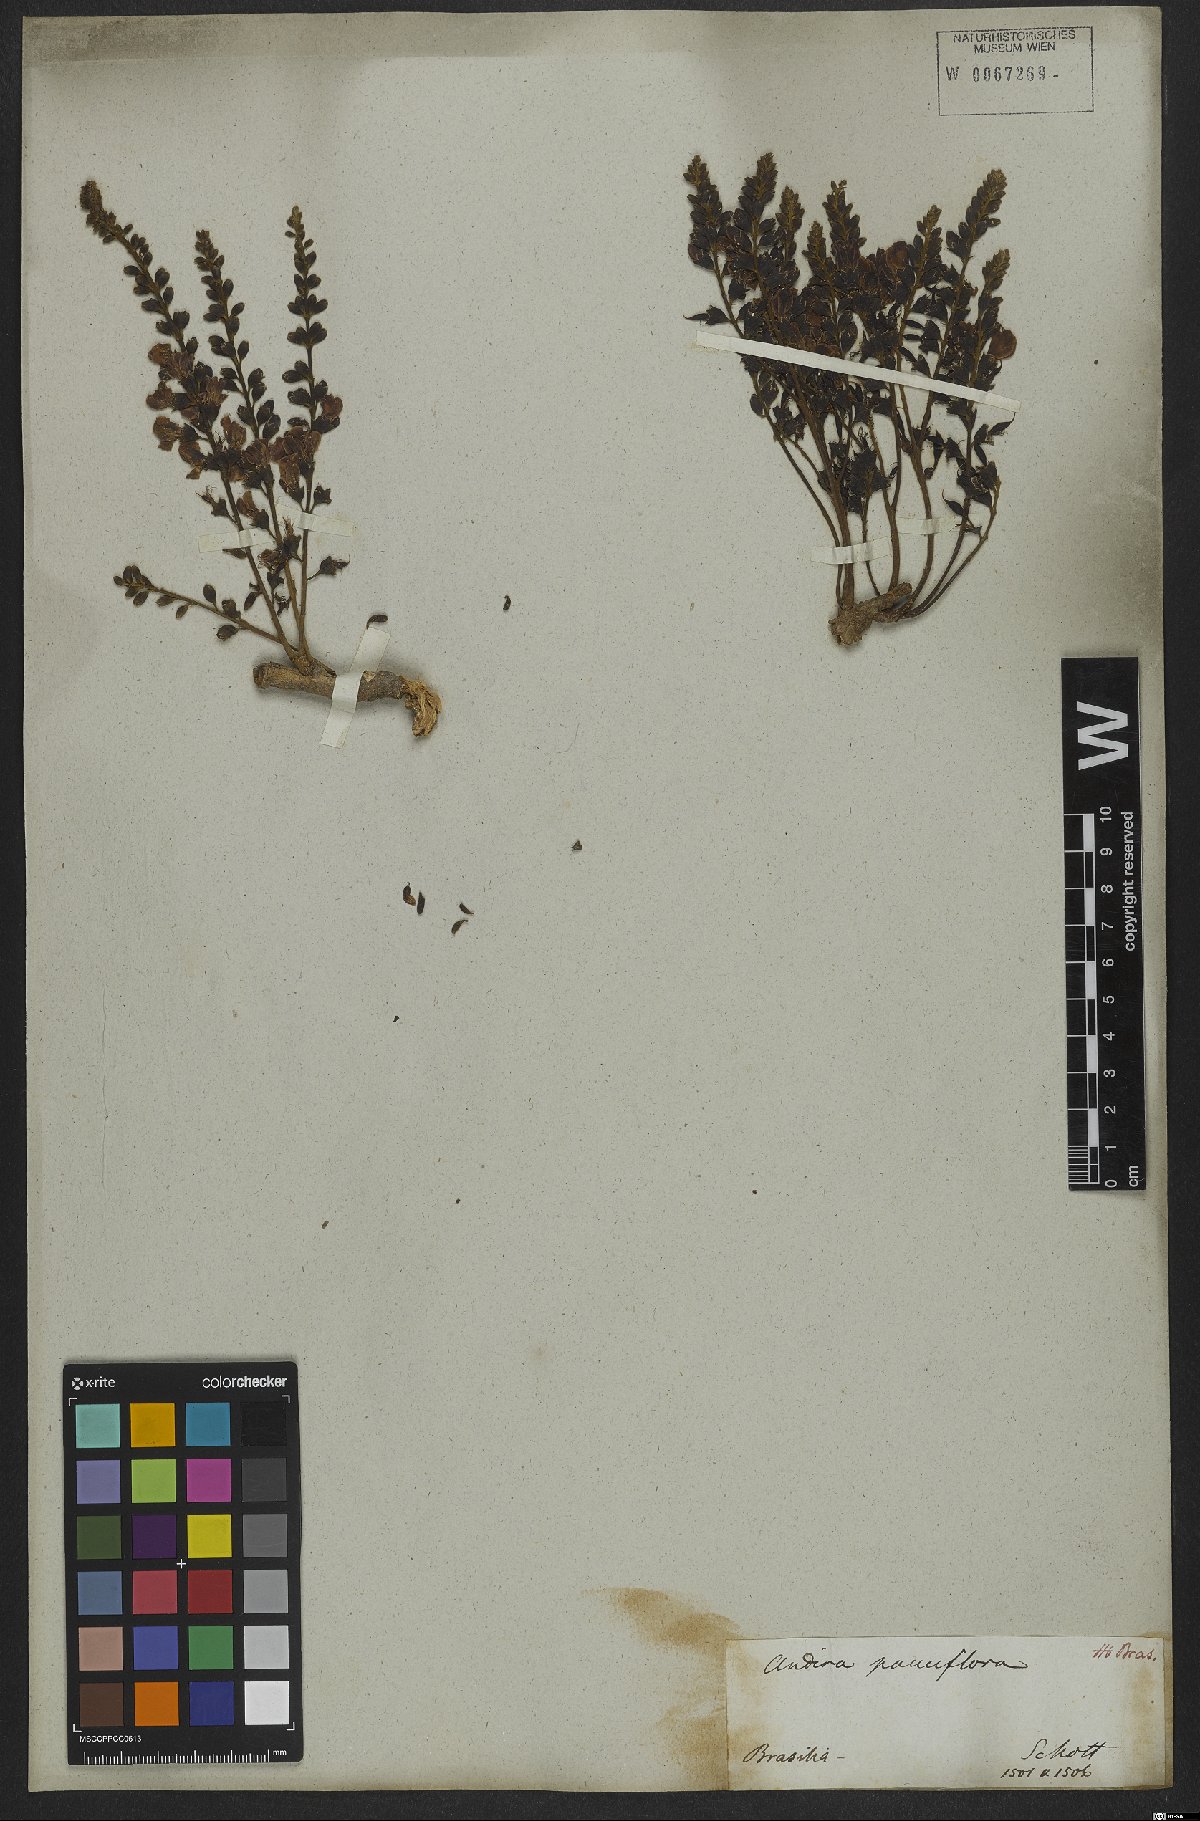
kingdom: Plantae
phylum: Tracheophyta
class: Magnoliopsida
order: Fabales
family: Fabaceae
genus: Andira
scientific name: Andira surinamensis
